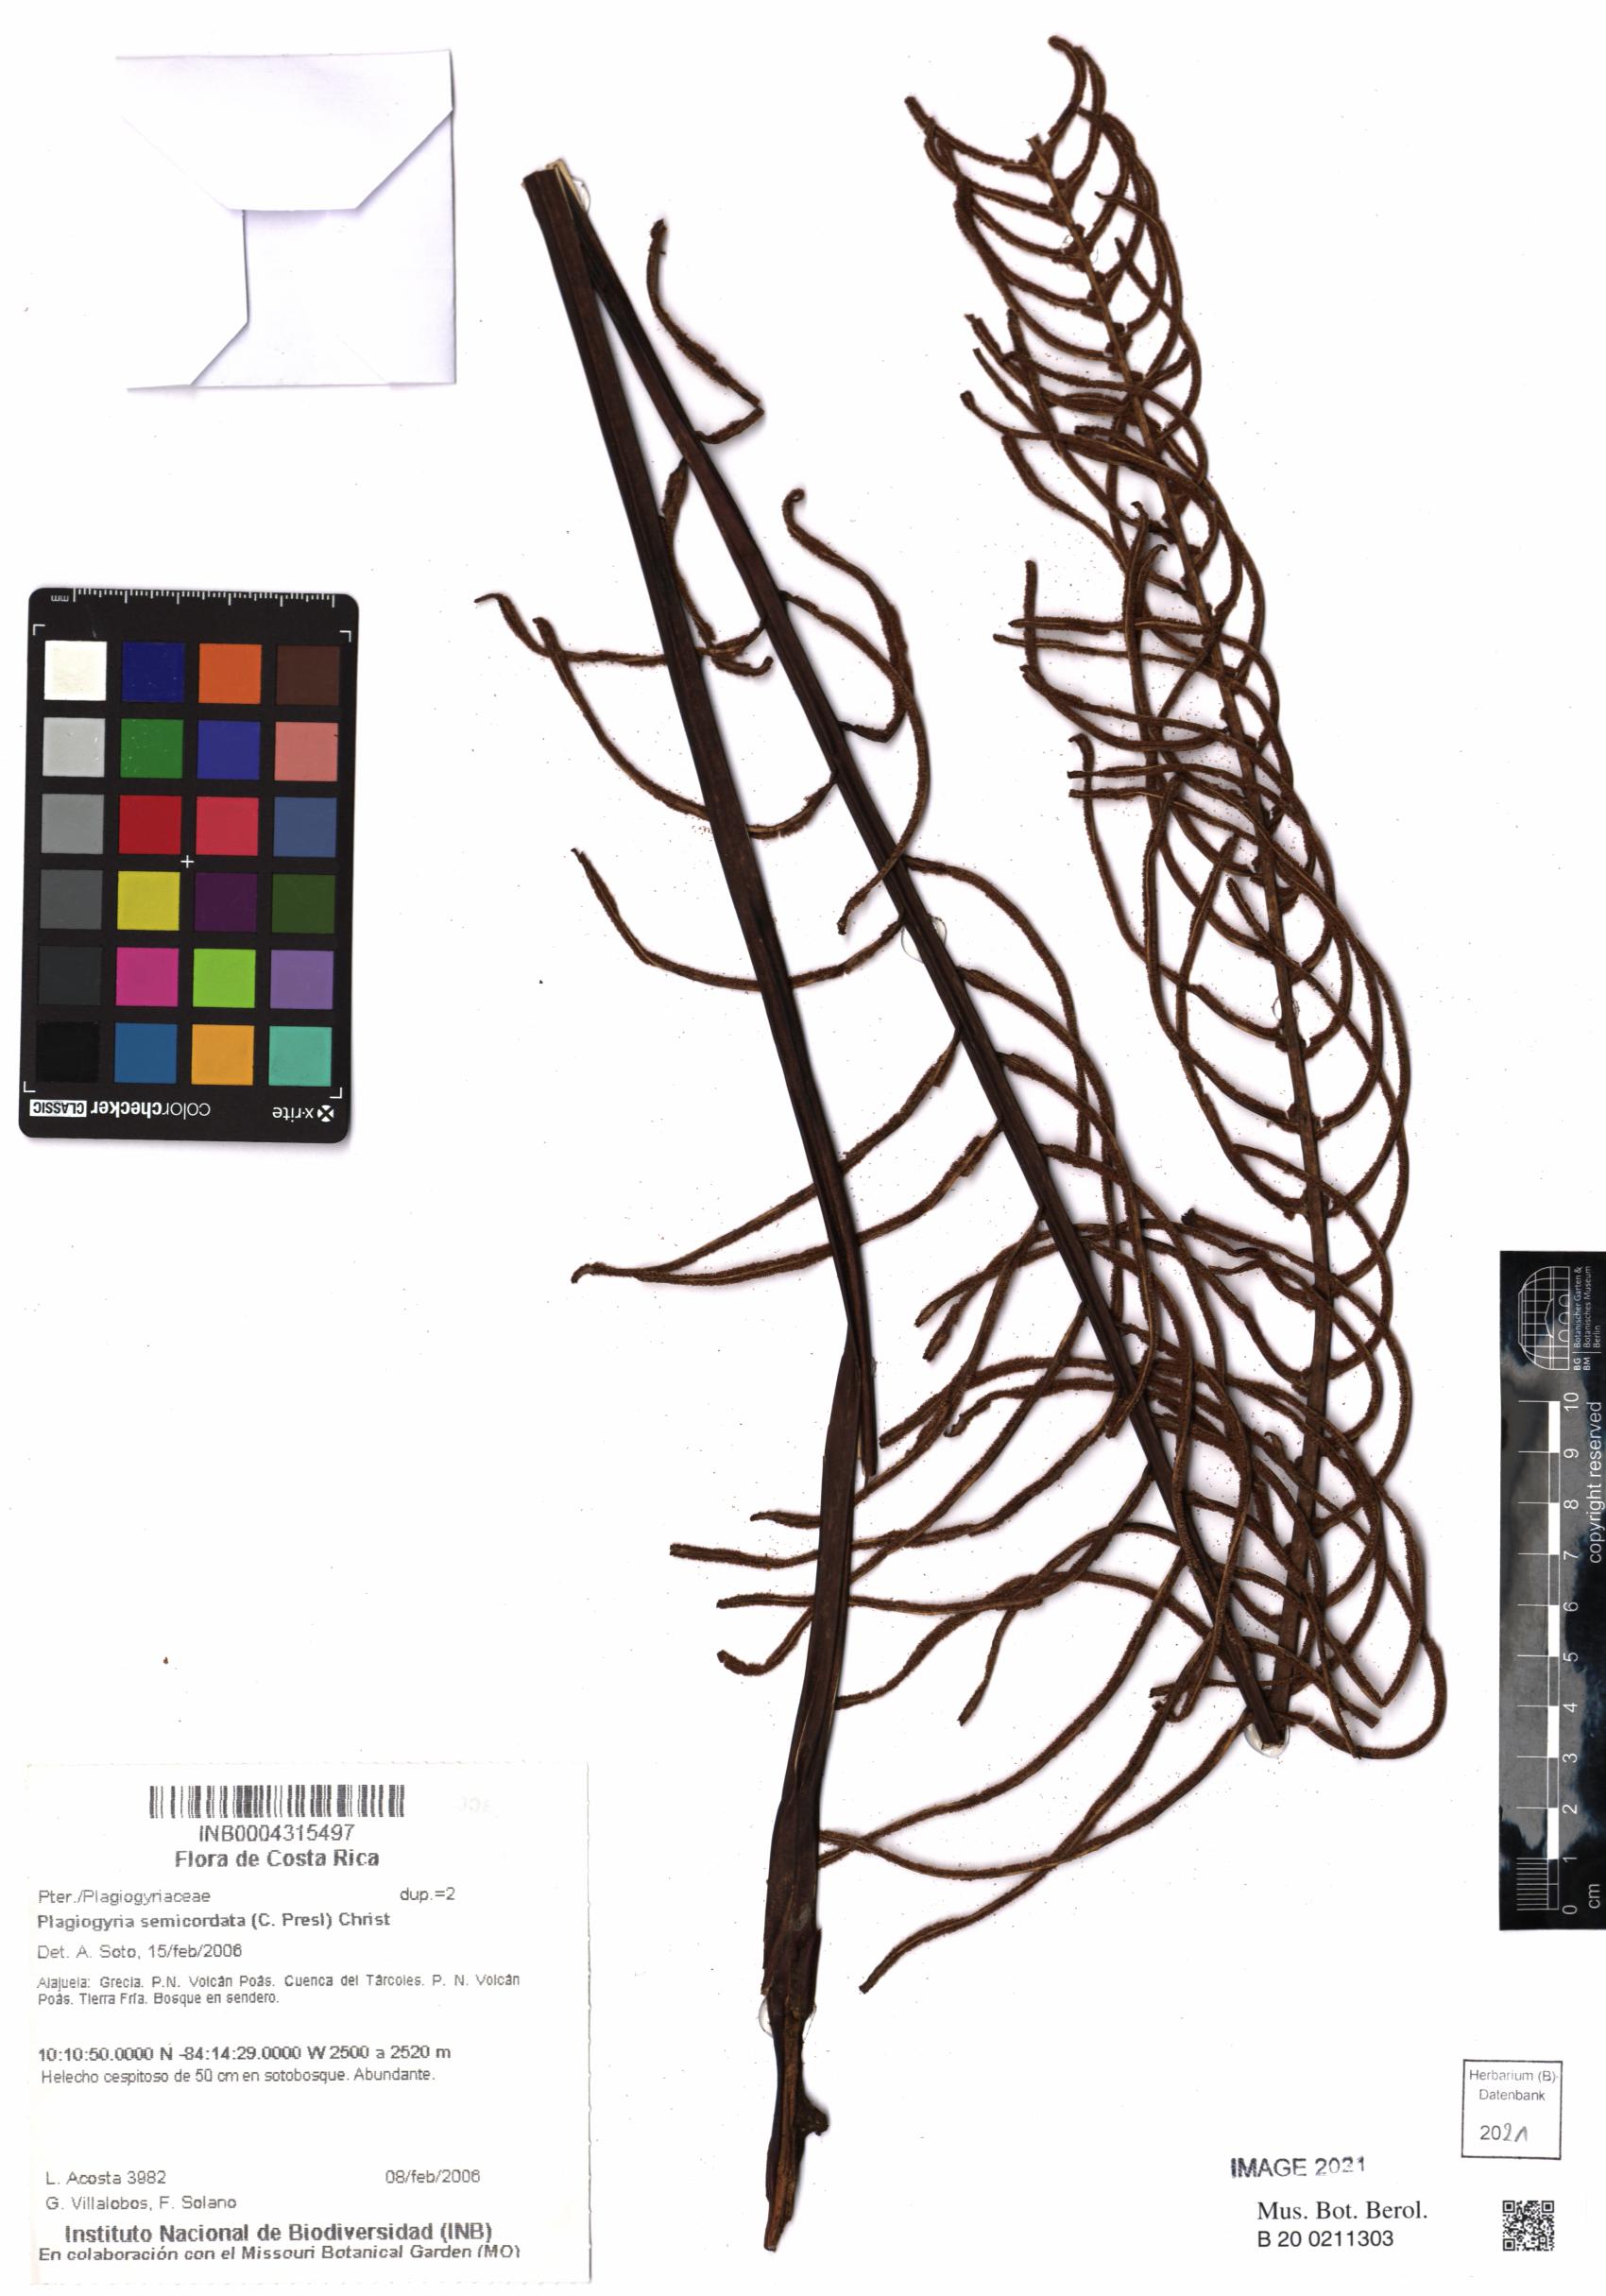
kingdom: Plantae
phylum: Tracheophyta
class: Polypodiopsida
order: Cyatheales
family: Plagiogyriaceae
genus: Plagiogyria
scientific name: Plagiogyria pectinata
